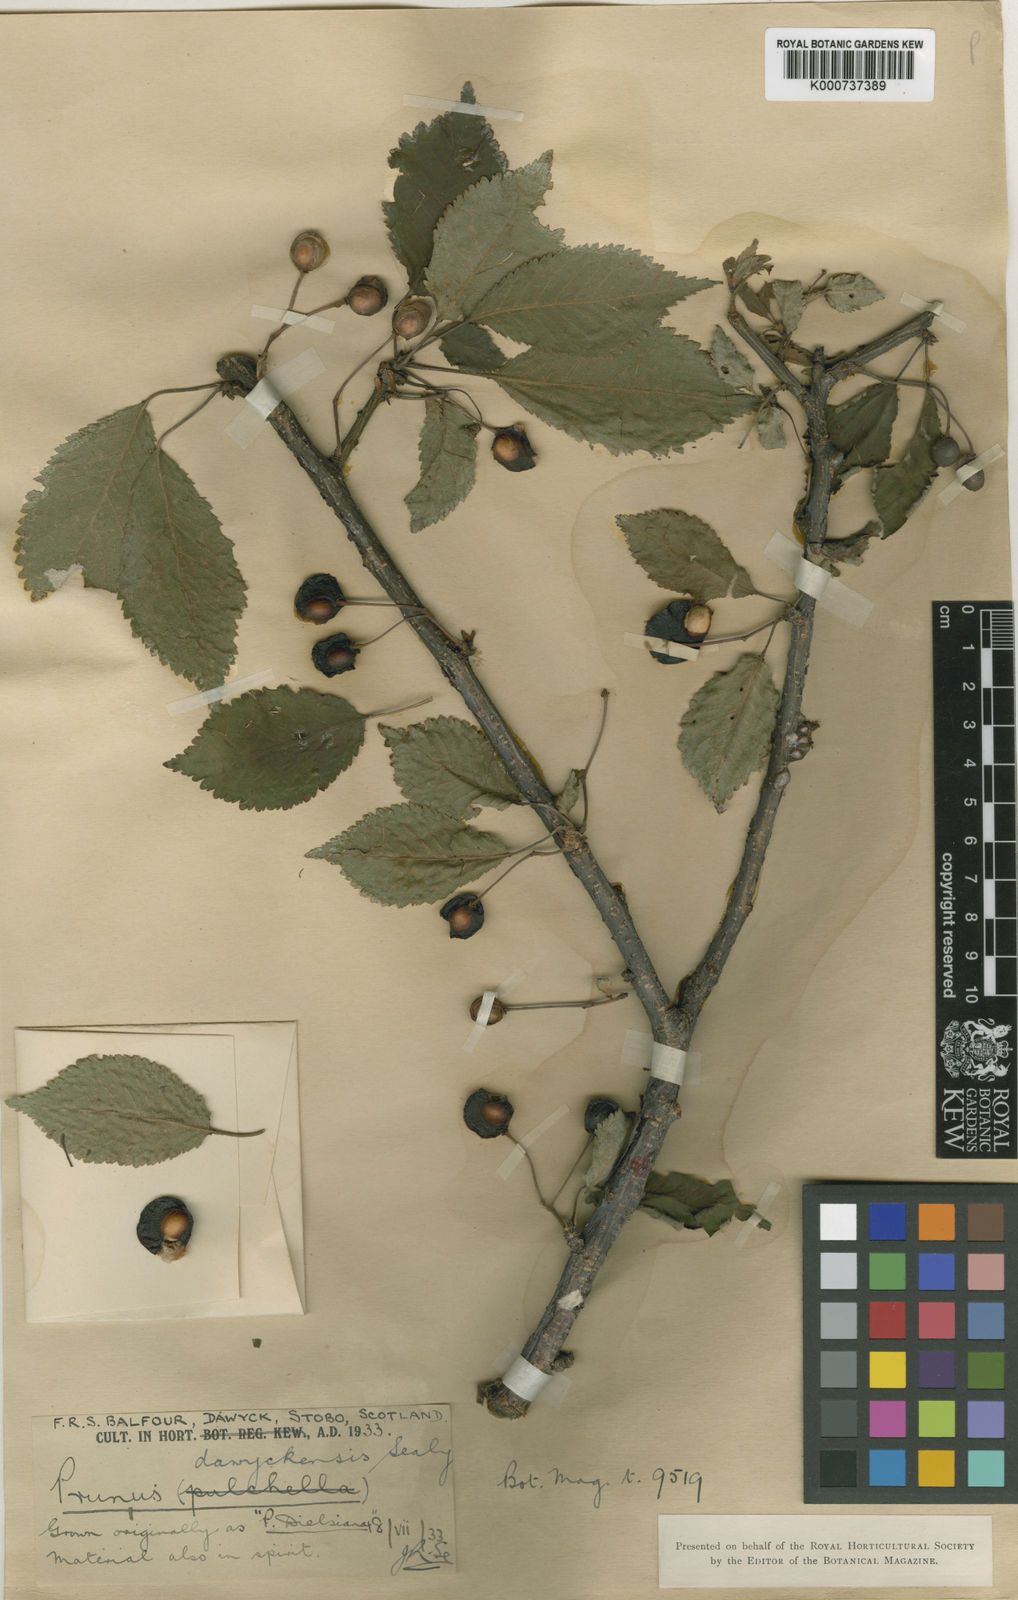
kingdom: Plantae
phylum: Tracheophyta
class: Magnoliopsida
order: Rosales
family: Rosaceae
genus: Prunus
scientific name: Prunus dawyckensis
